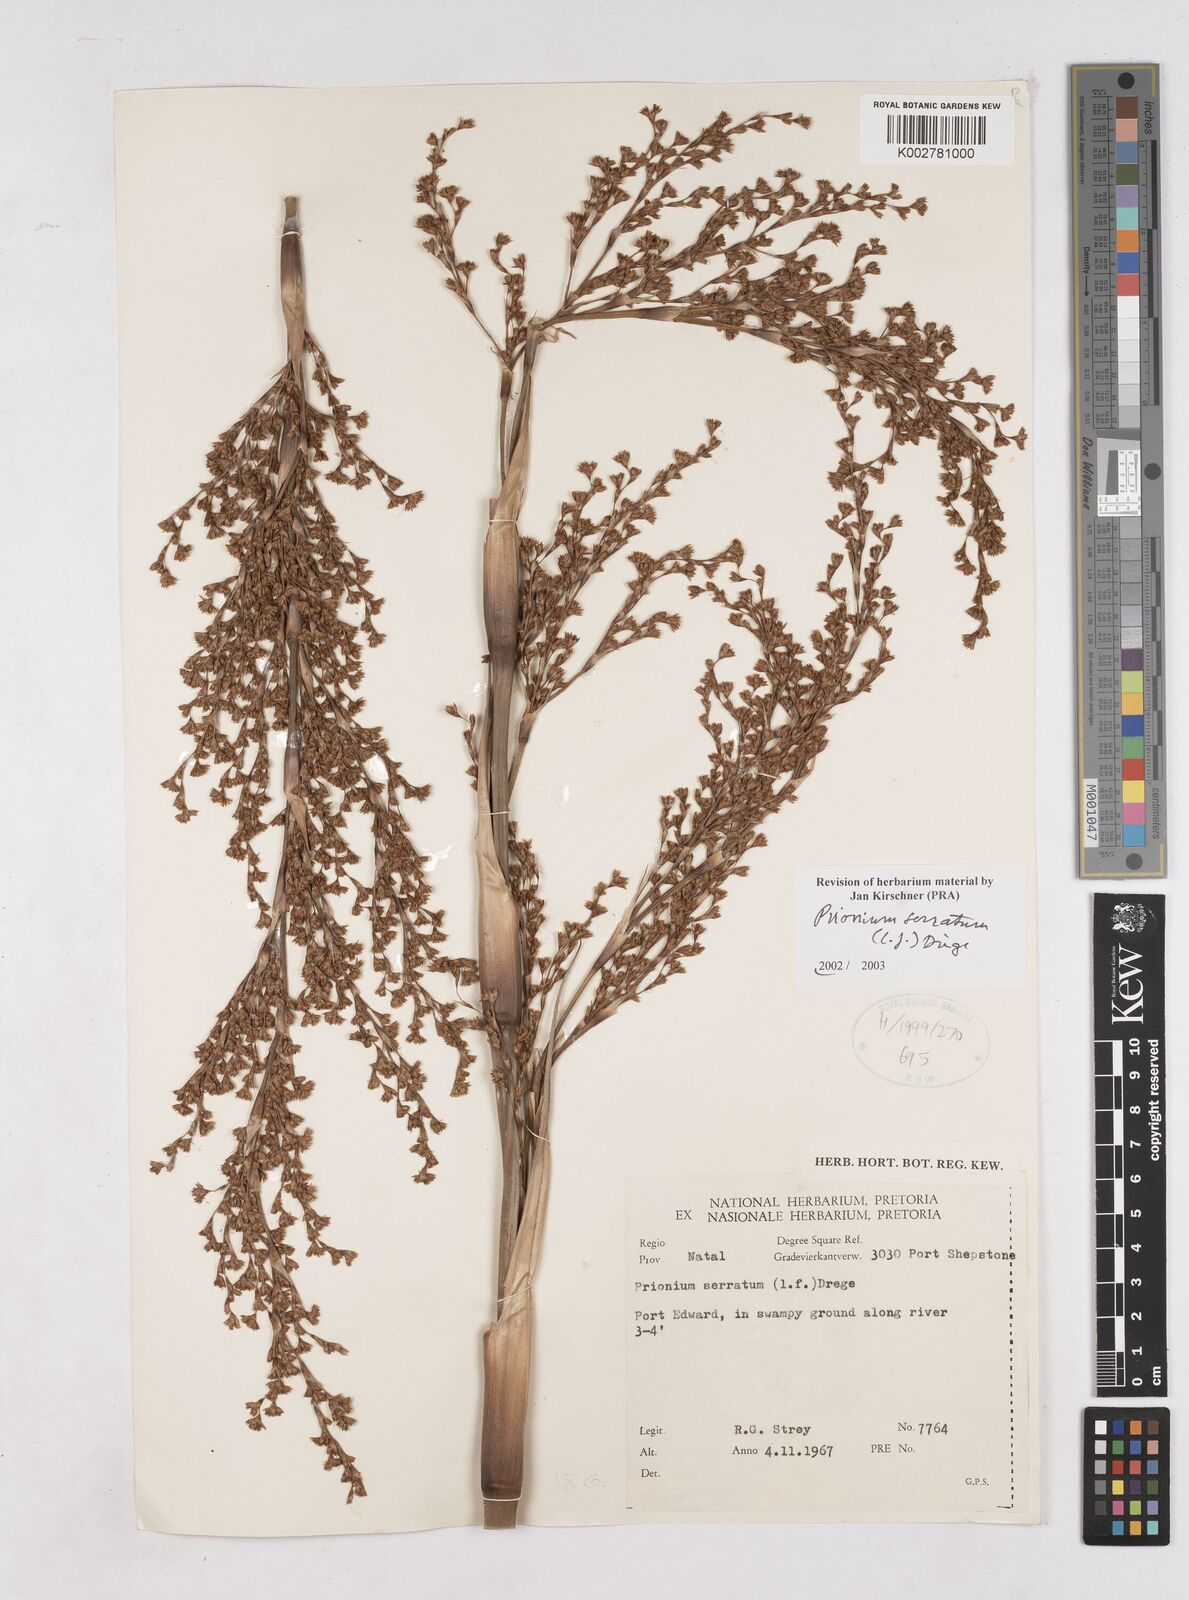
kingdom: Plantae
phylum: Tracheophyta
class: Liliopsida
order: Poales
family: Thurniaceae
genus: Prionium
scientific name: Prionium serratum
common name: Palmiet
